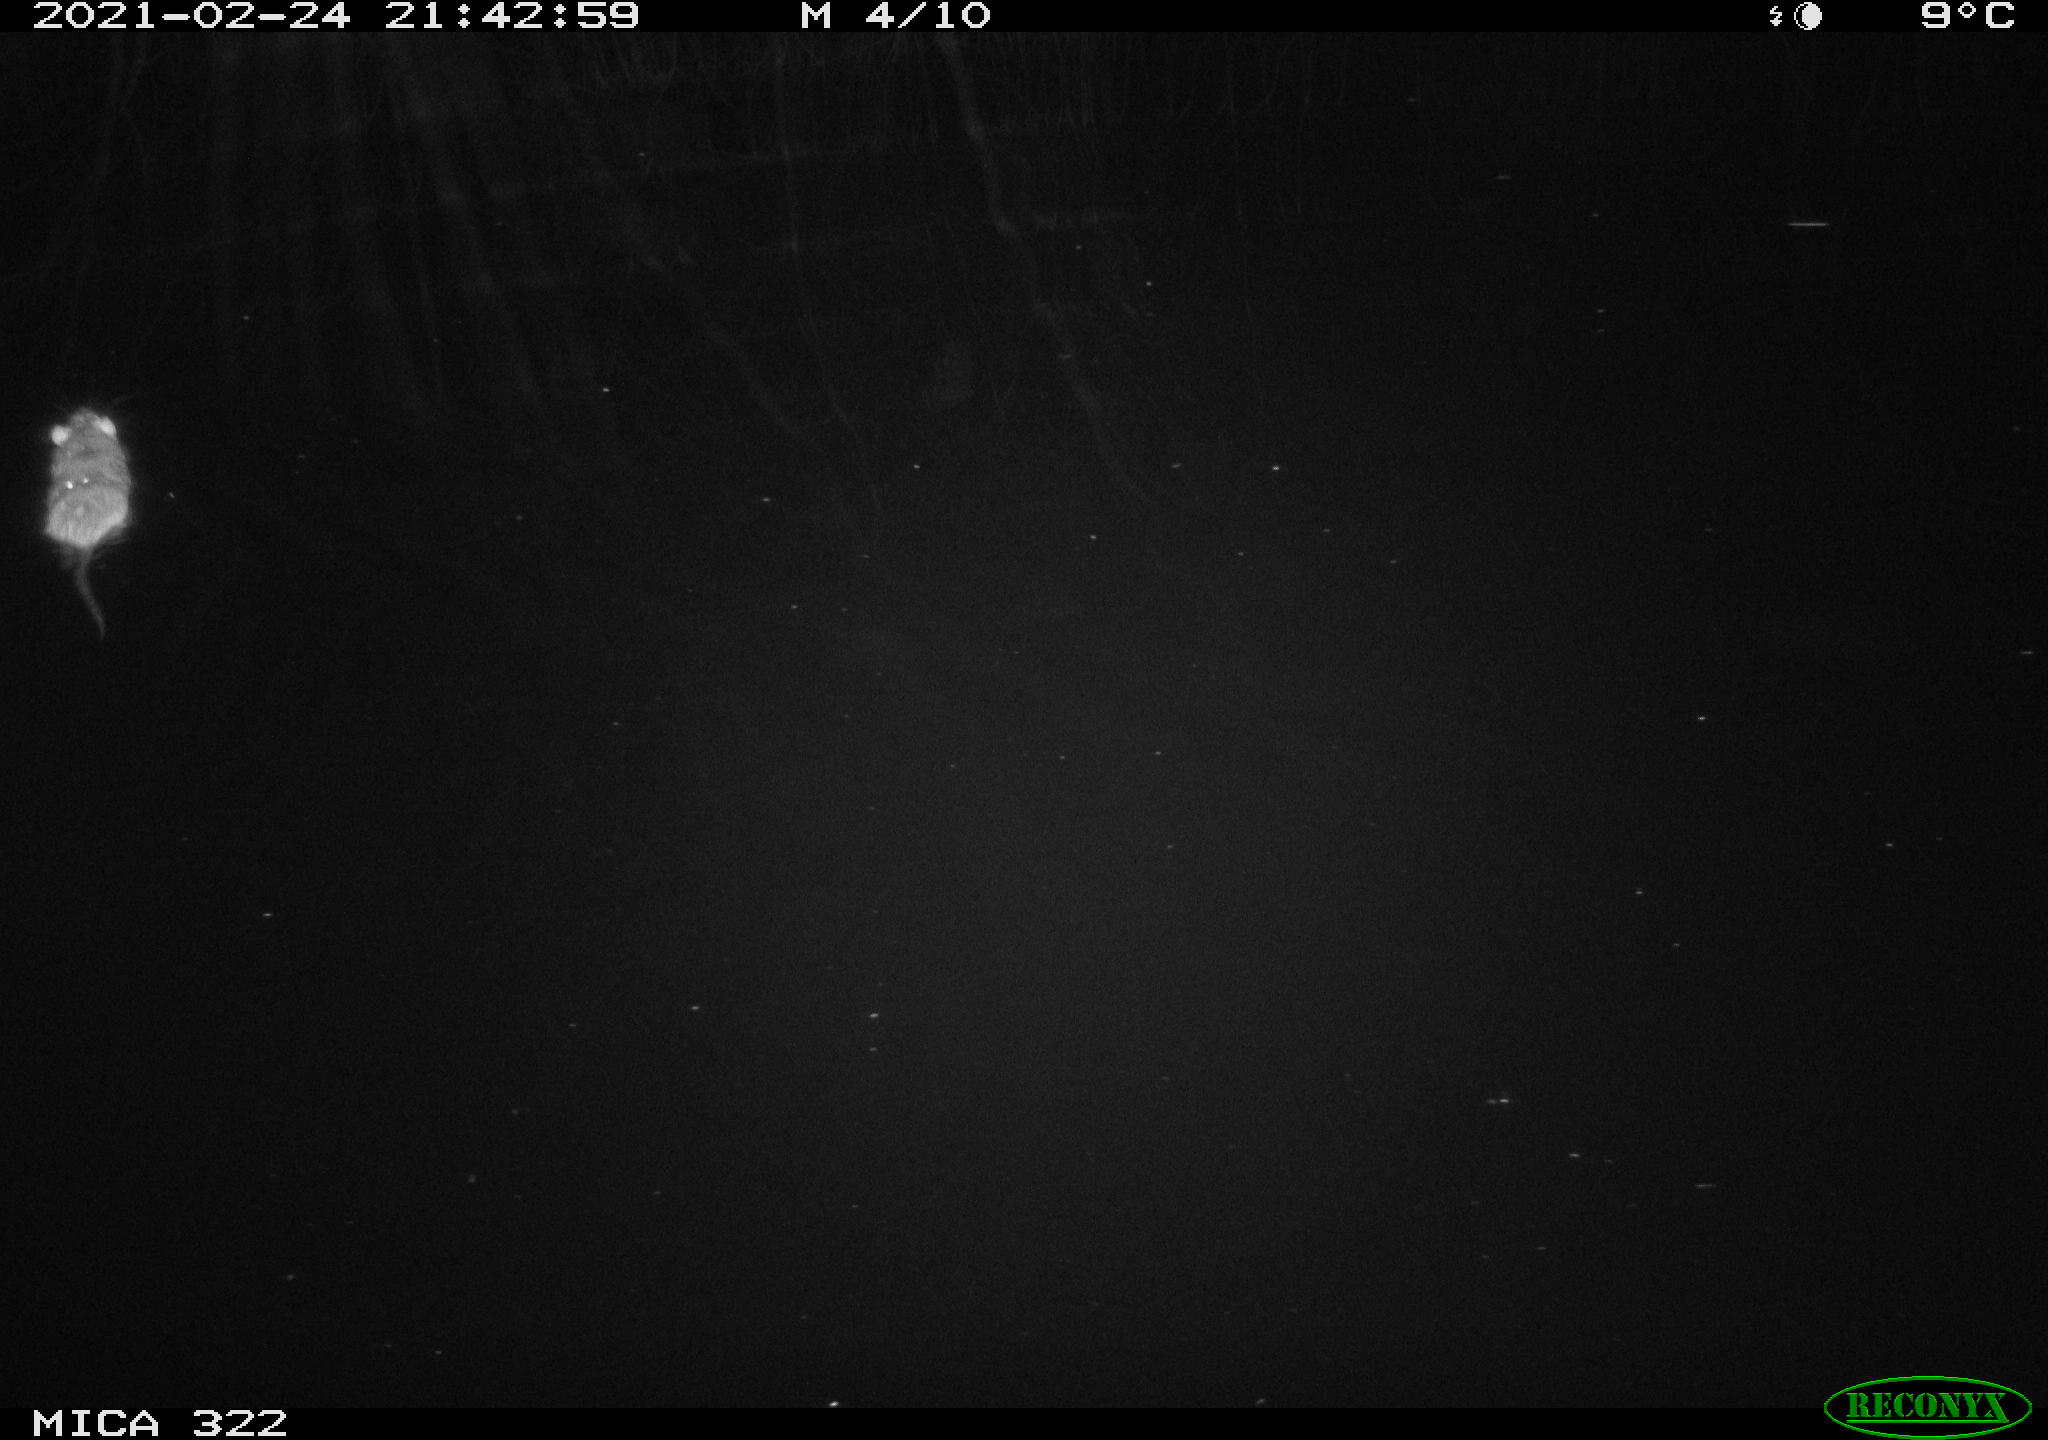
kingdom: Animalia
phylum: Chordata
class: Mammalia
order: Rodentia
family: Muridae
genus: Rattus
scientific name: Rattus norvegicus
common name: Brown rat
